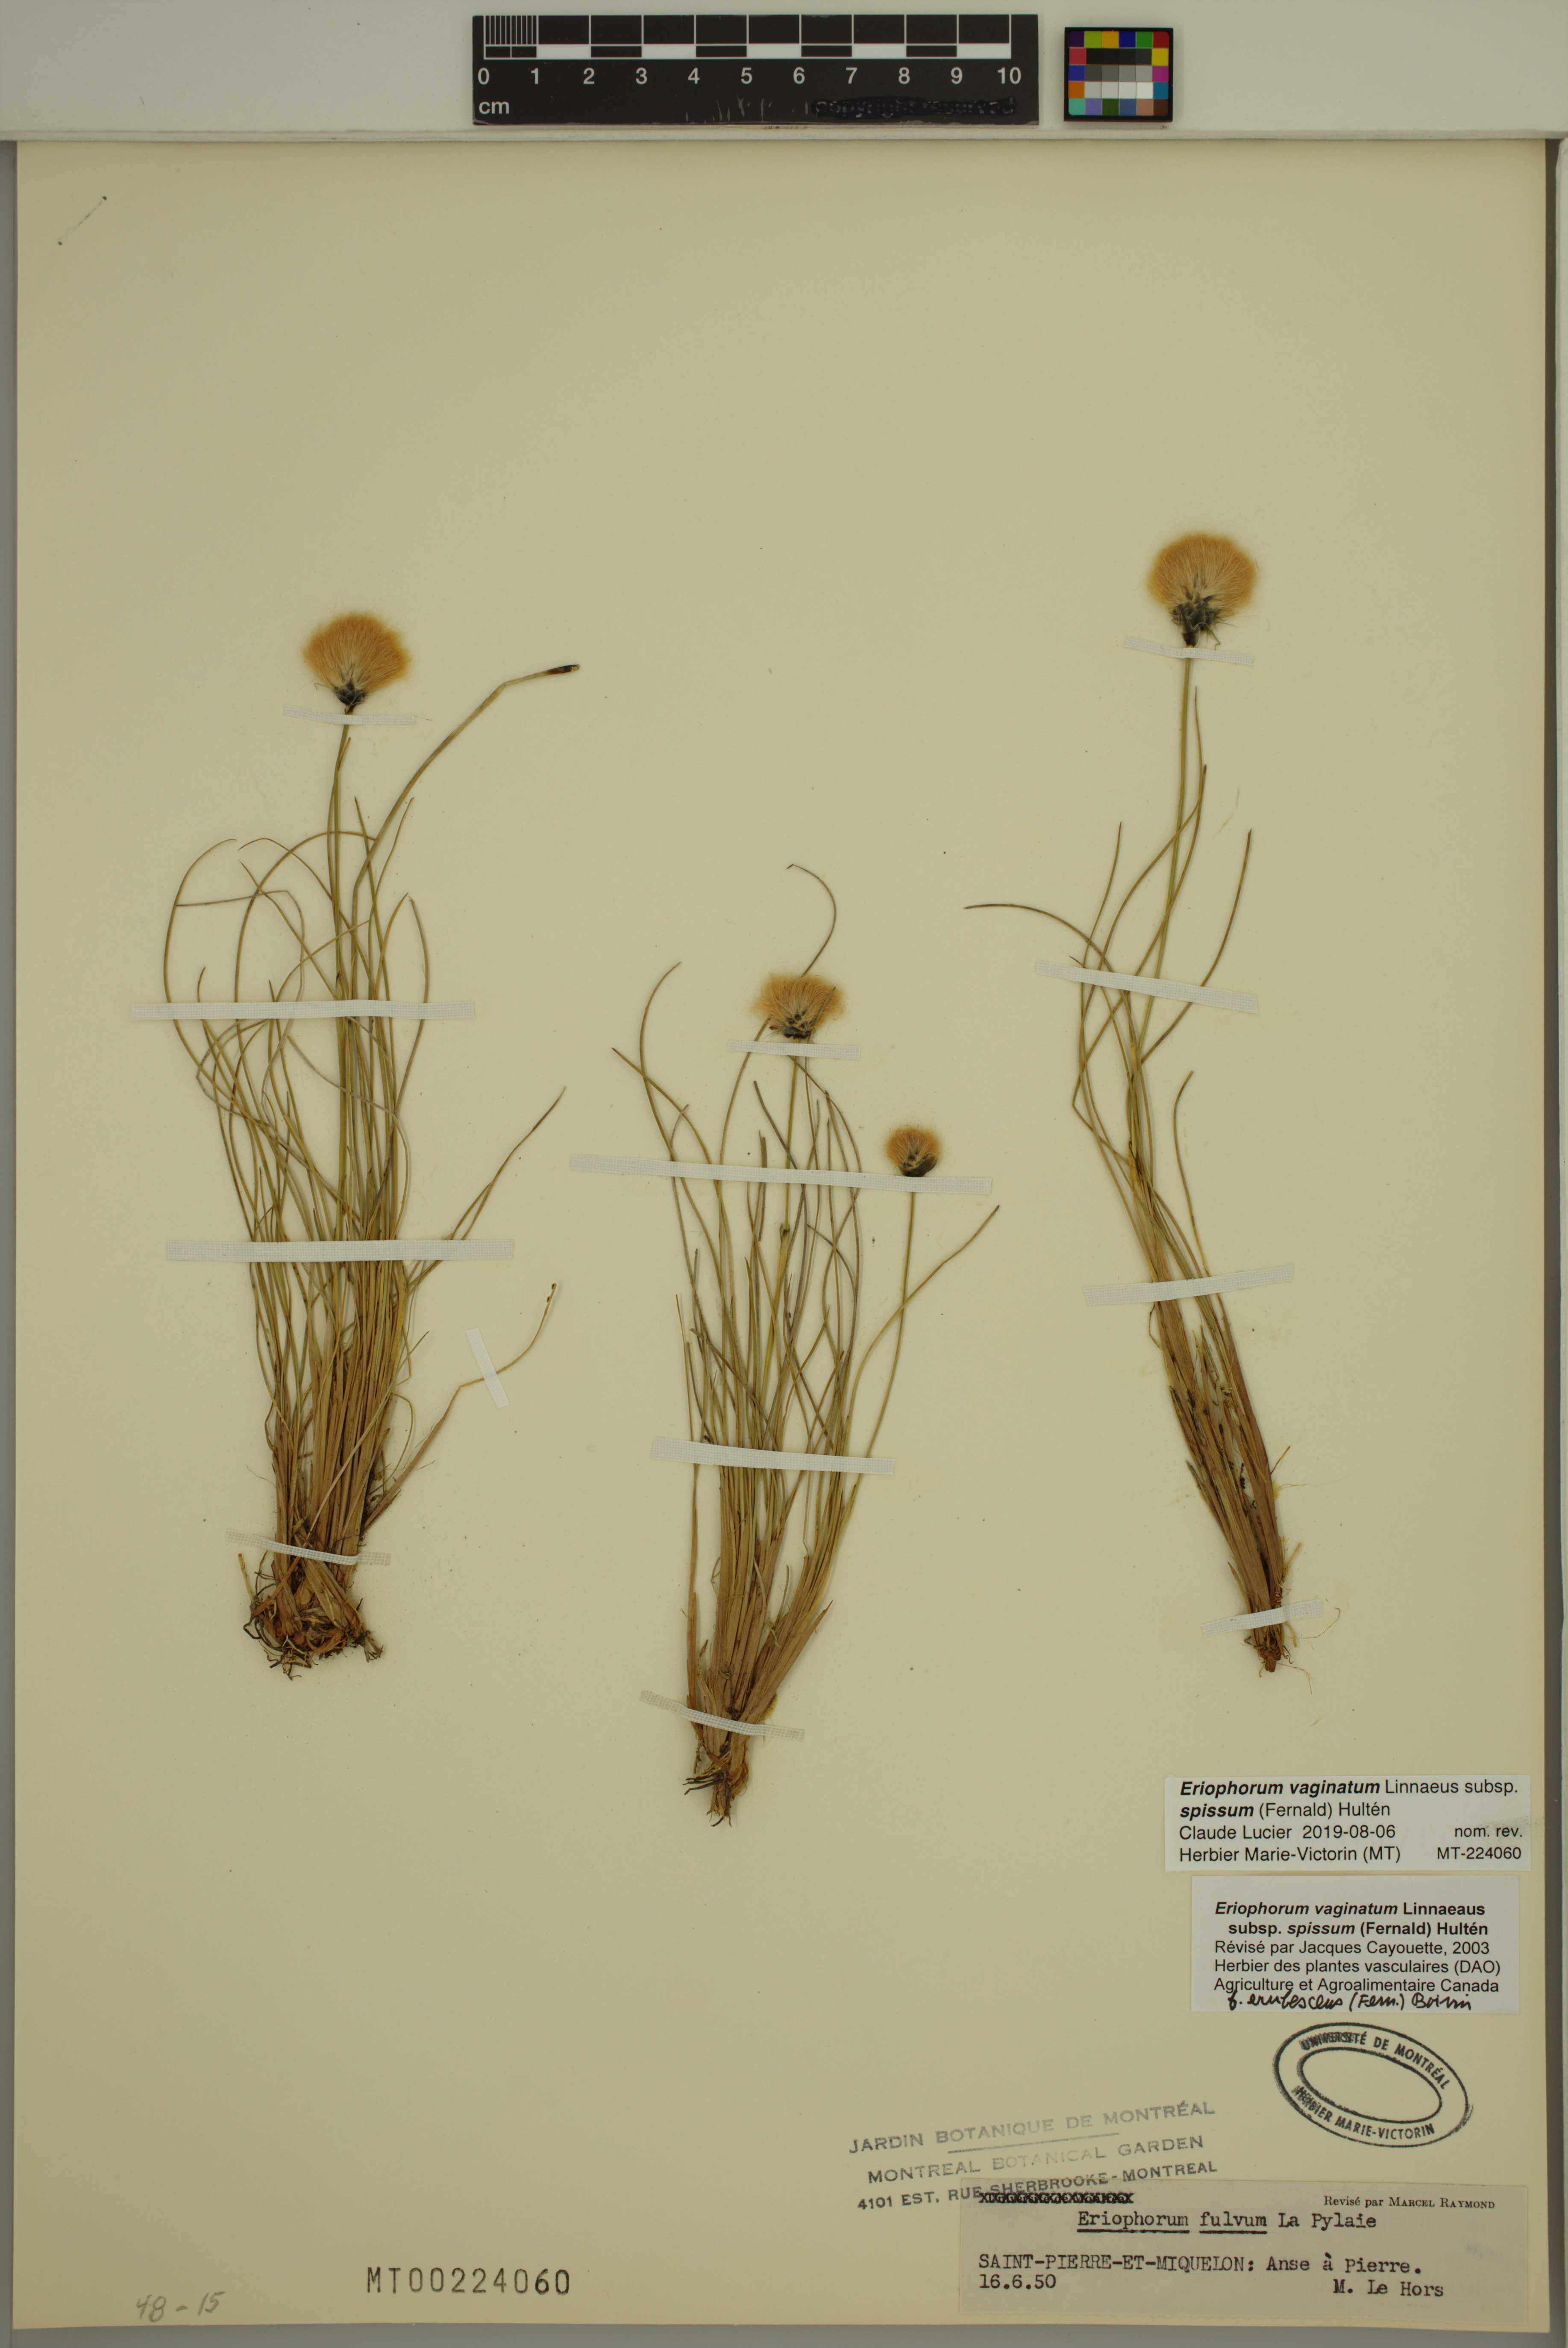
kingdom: Plantae
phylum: Tracheophyta
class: Liliopsida
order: Poales
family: Cyperaceae
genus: Eriophorum
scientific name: Eriophorum vaginatum
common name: Hare's-tail cottongrass
